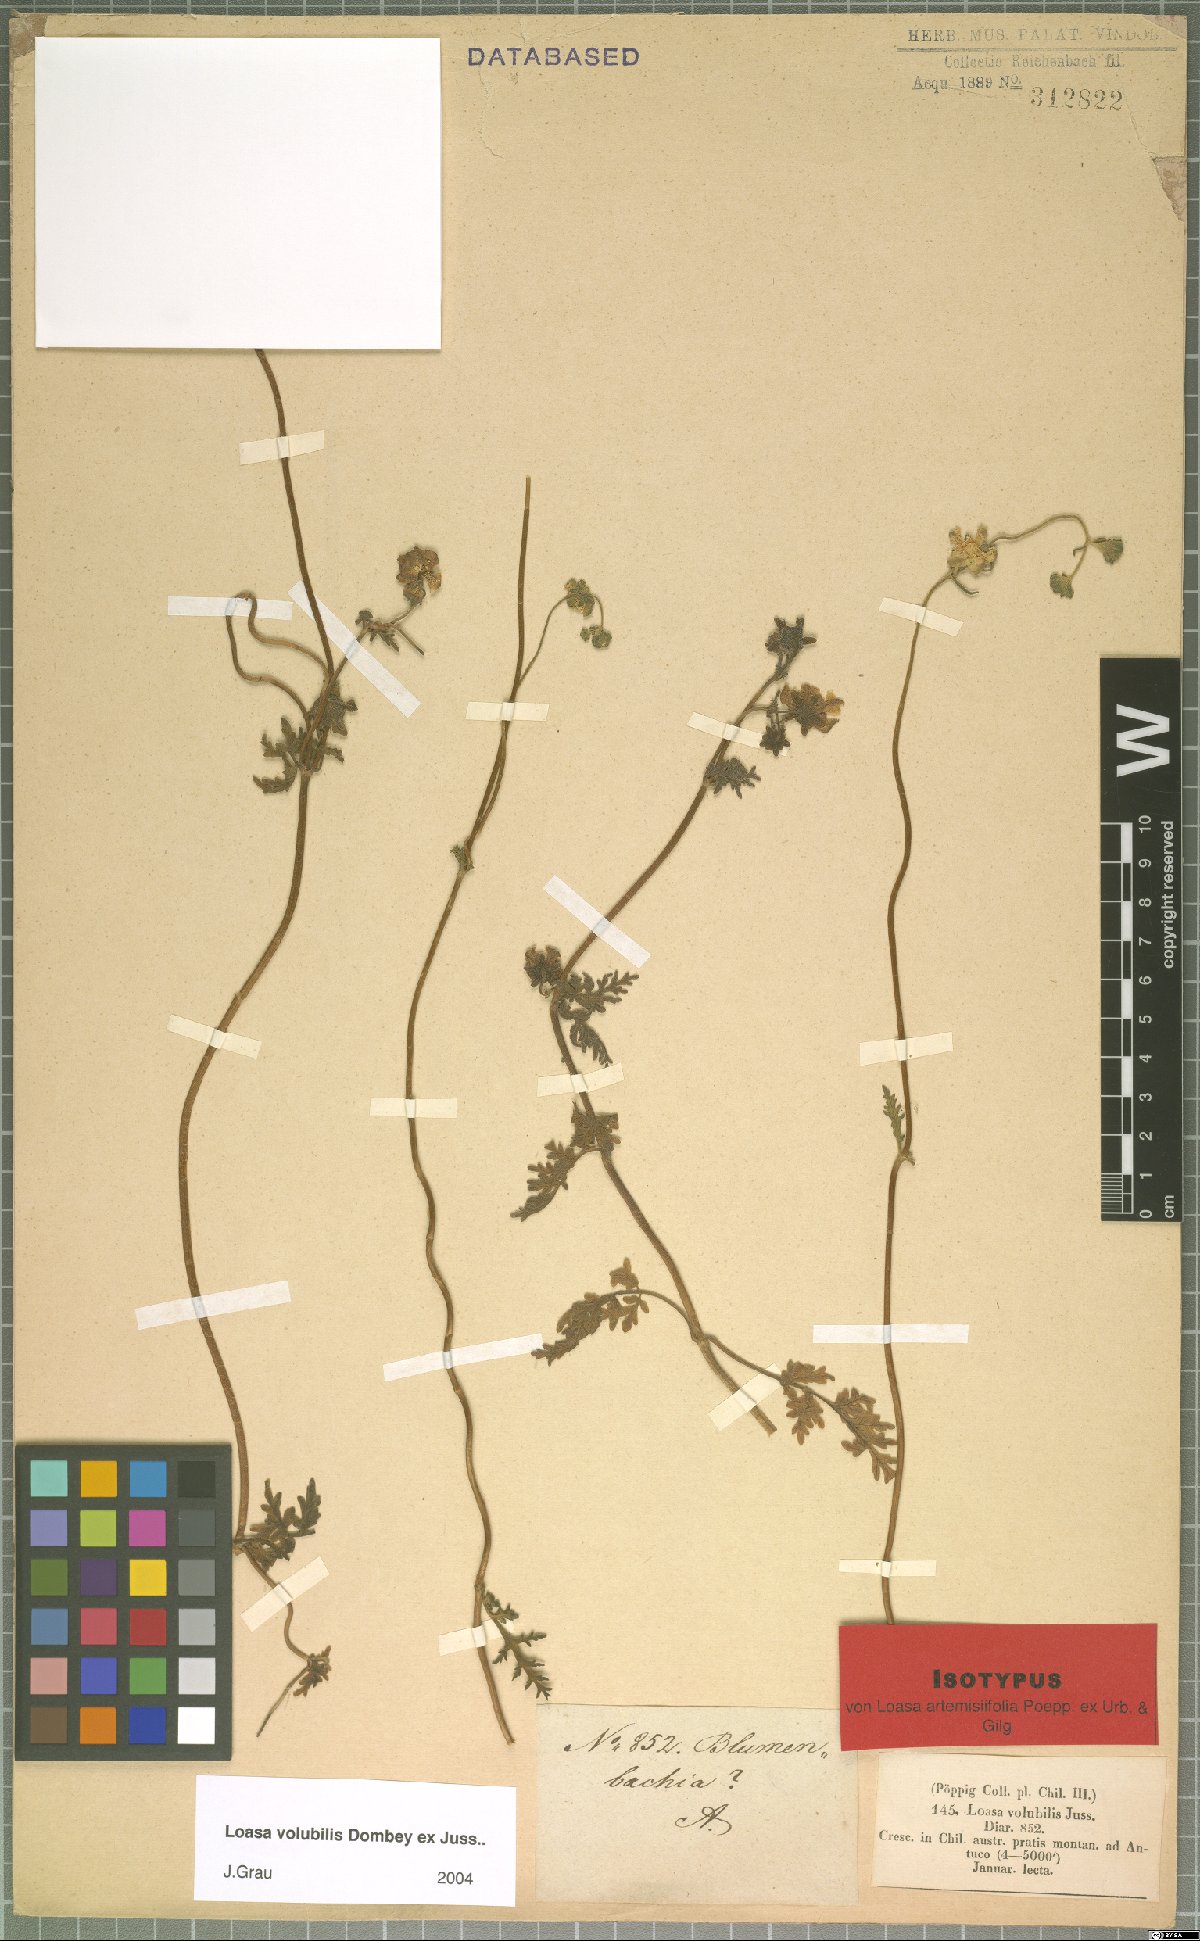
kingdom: Plantae
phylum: Tracheophyta
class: Magnoliopsida
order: Cornales
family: Loasaceae
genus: Pinnasa
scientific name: Pinnasa volubilis
